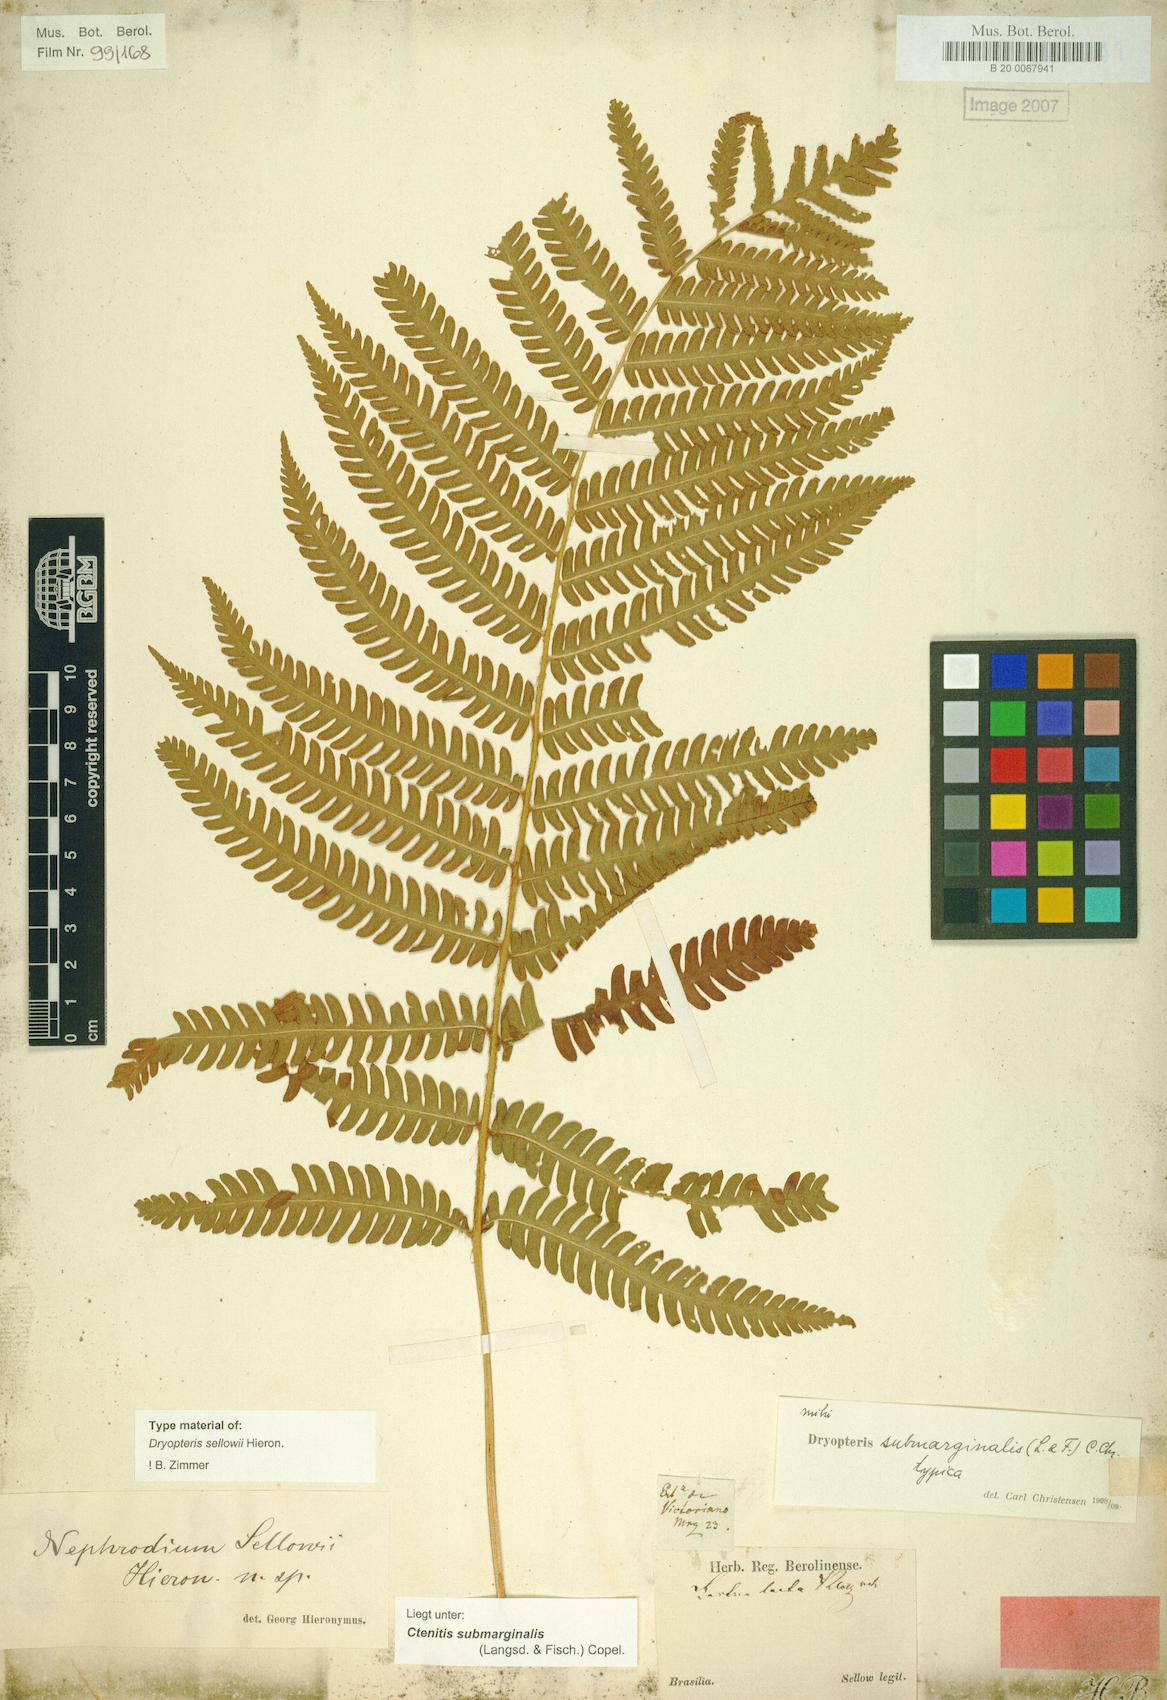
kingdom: Plantae
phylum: Tracheophyta
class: Polypodiopsida
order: Polypodiales
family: Dryopteridaceae
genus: Ctenitis
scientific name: Ctenitis submarginalis
